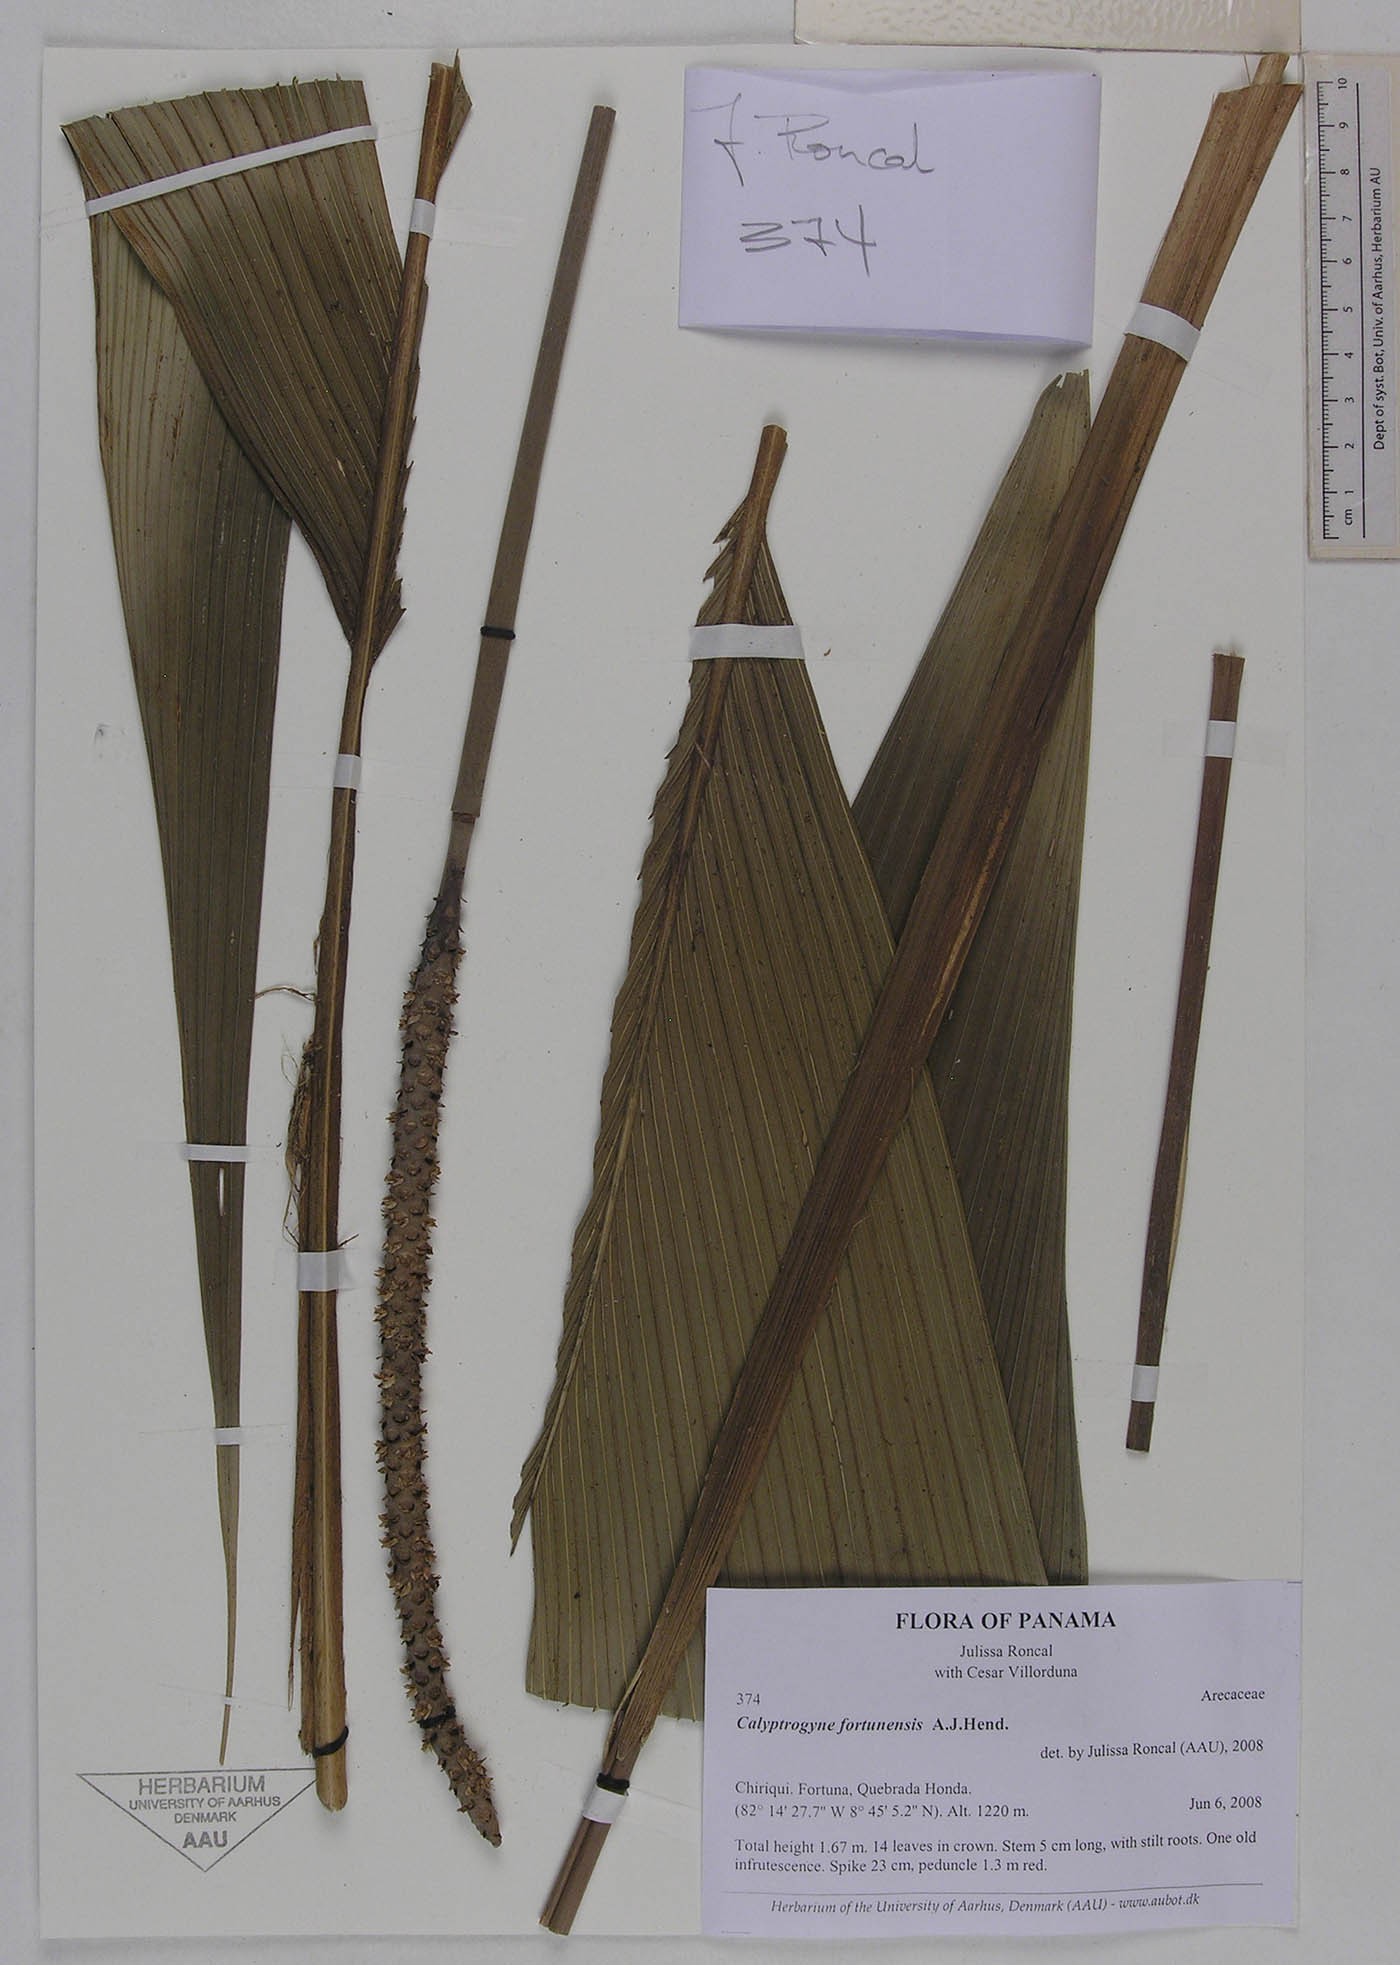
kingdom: Plantae
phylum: Tracheophyta
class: Liliopsida
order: Arecales
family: Arecaceae
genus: Calyptrogyne
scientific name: Calyptrogyne fortunensis
